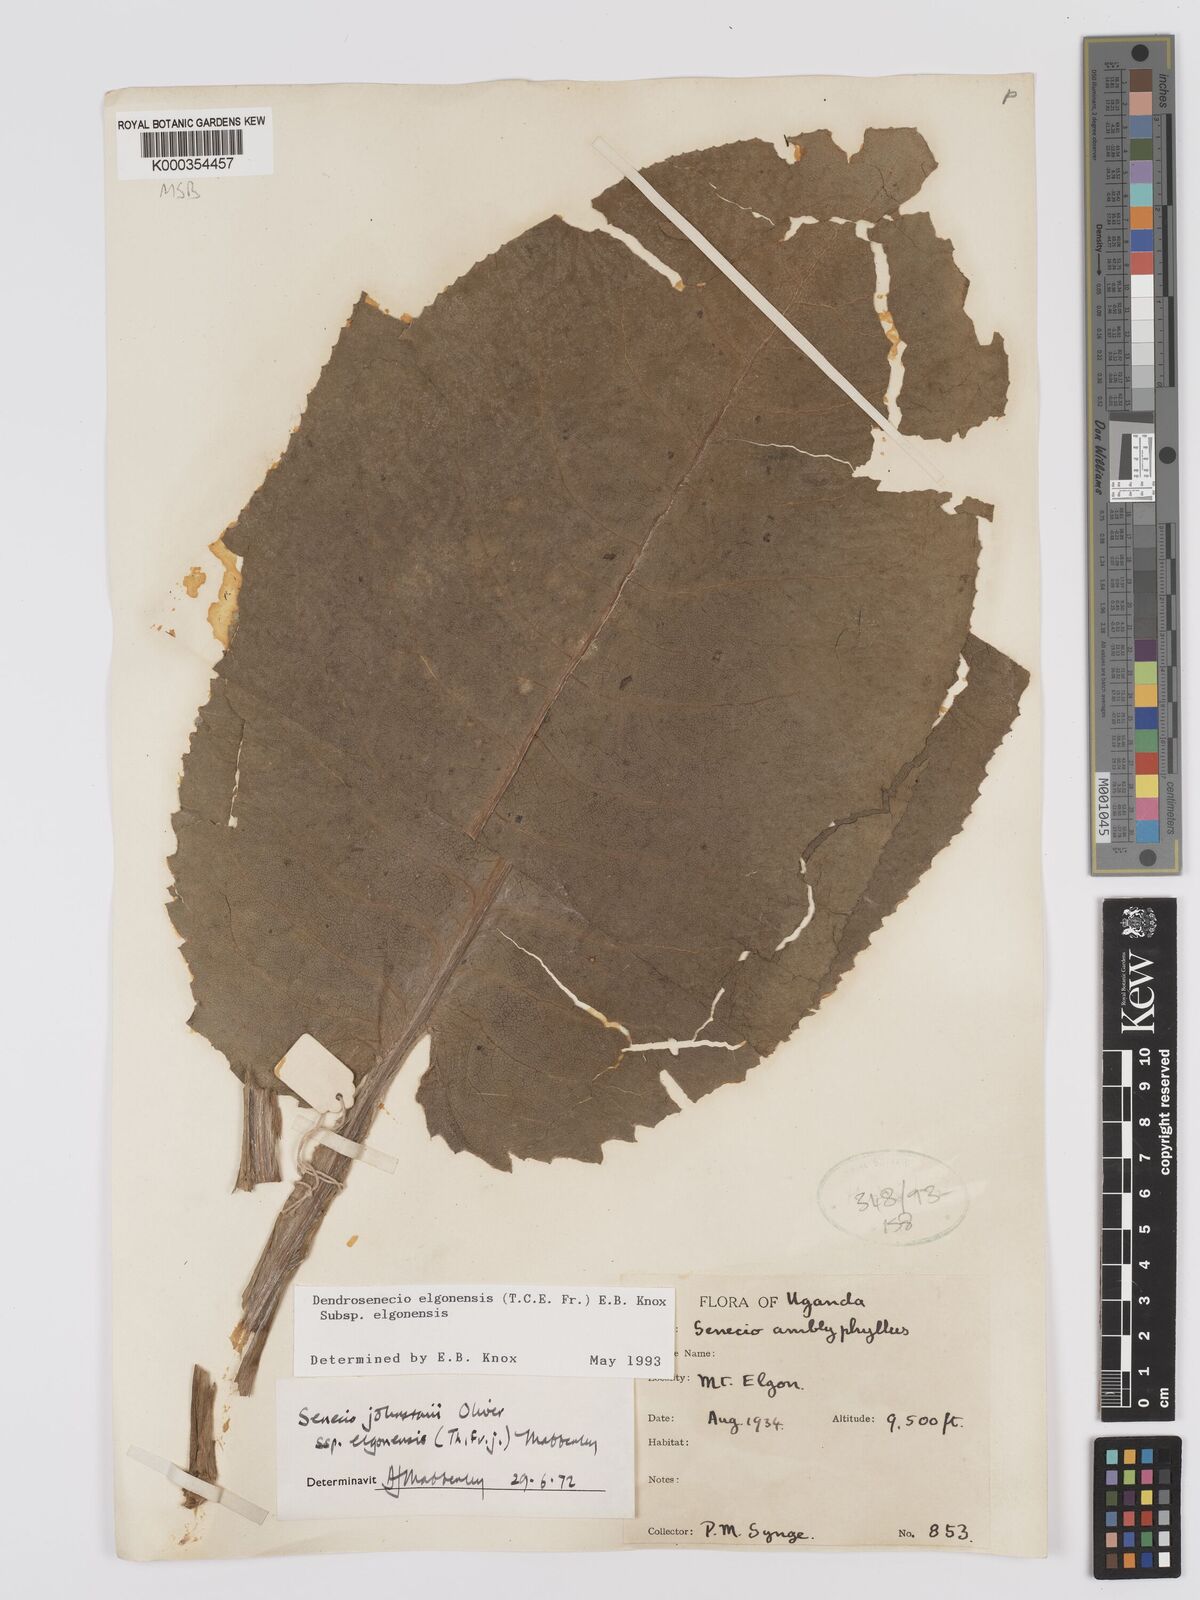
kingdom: Plantae
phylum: Tracheophyta
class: Magnoliopsida
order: Asterales
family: Asteraceae
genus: Dendrosenecio
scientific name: Dendrosenecio elgonensis
